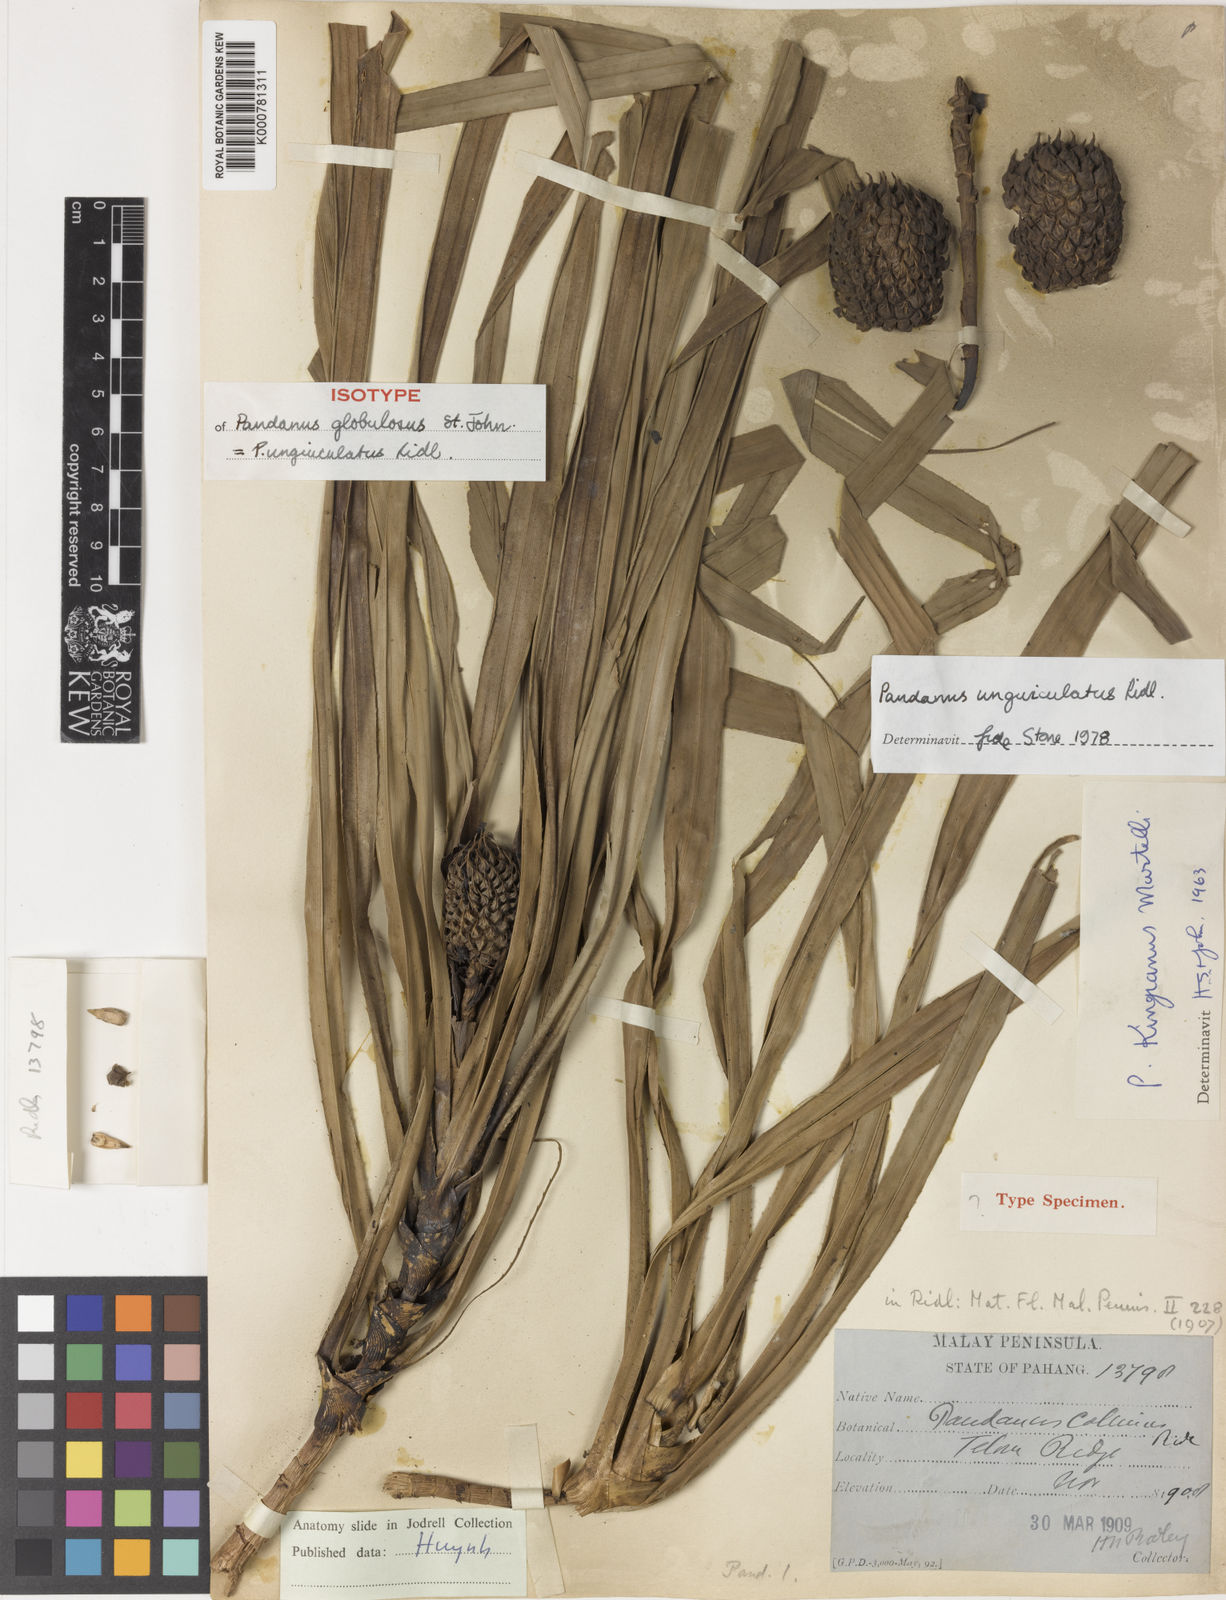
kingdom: Plantae
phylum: Tracheophyta
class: Liliopsida
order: Pandanales
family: Pandanaceae
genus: Benstonea
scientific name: Benstonea unguiculata
